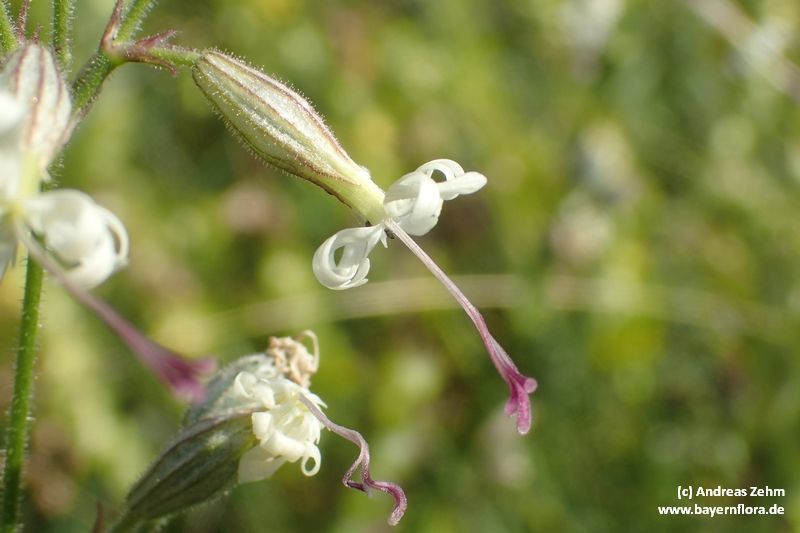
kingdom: Plantae
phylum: Tracheophyta
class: Magnoliopsida
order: Caryophyllales
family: Caryophyllaceae
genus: Silene
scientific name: Silene nutans
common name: Nottingham catchfly
